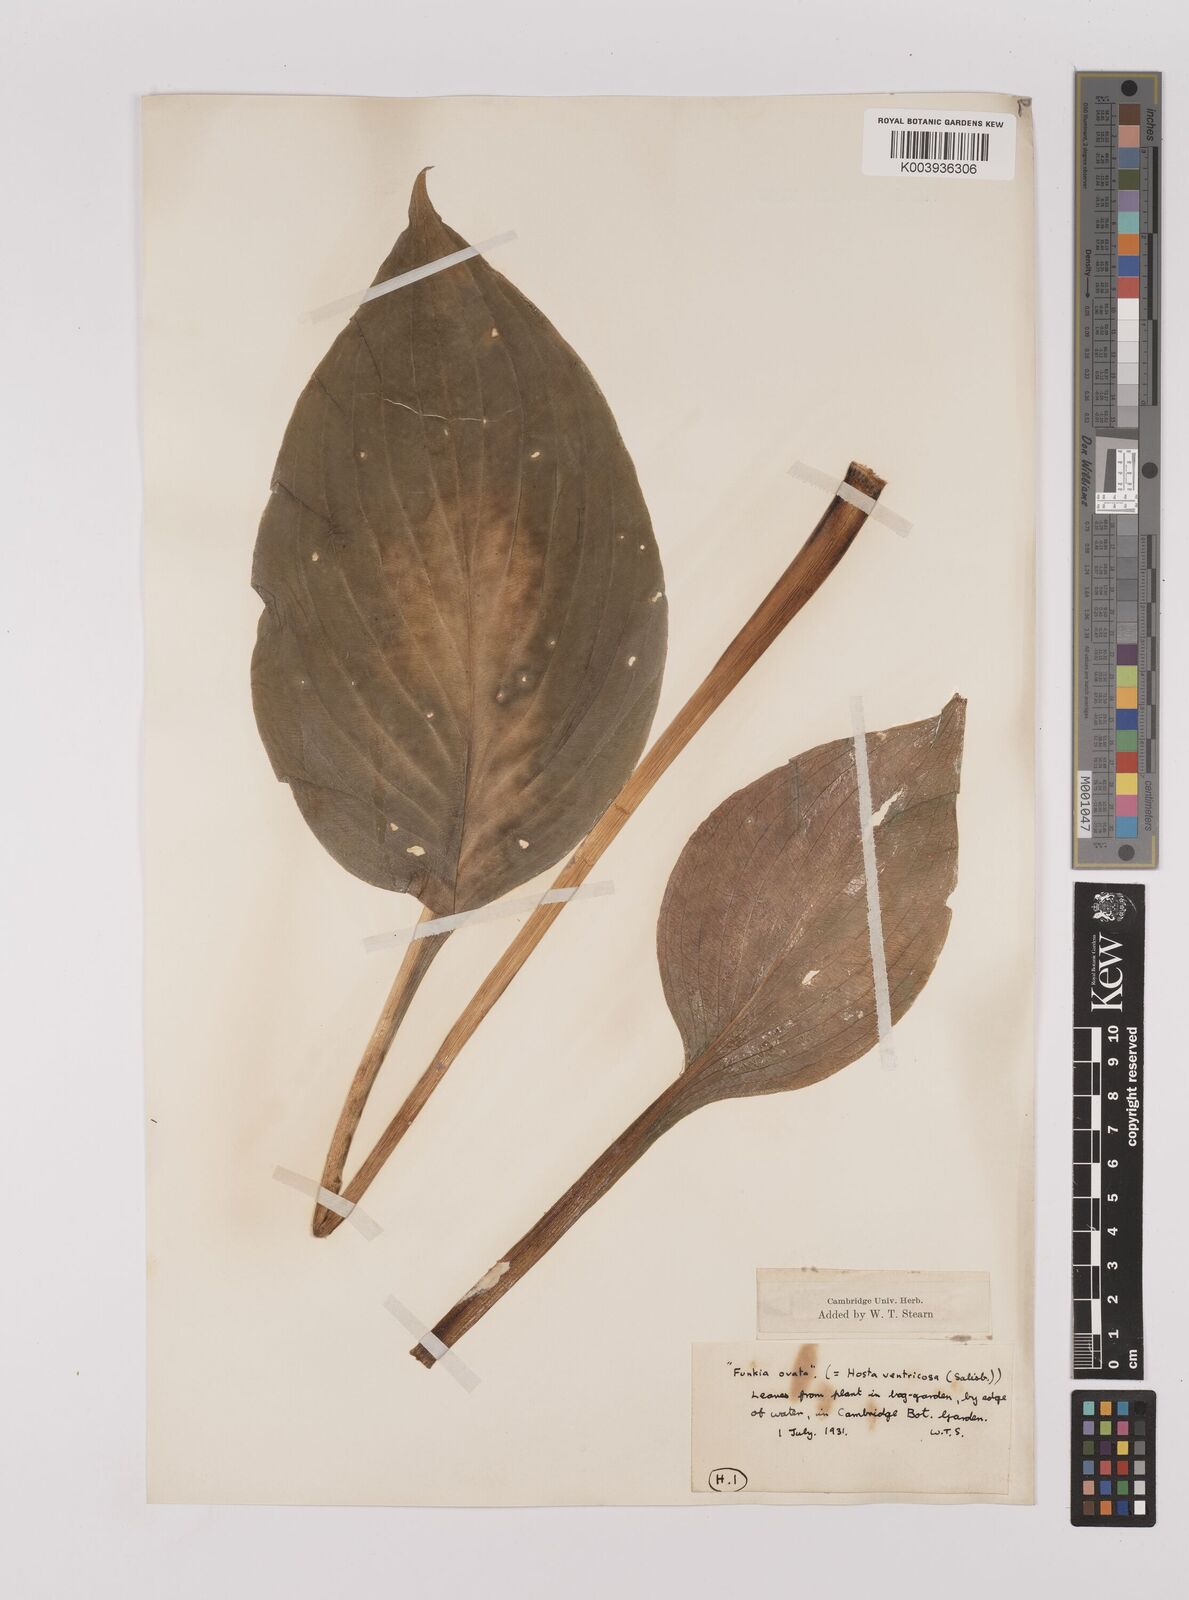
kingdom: Plantae
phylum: Tracheophyta
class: Liliopsida
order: Asparagales
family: Asparagaceae
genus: Hosta
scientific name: Hosta ventricosa
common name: Blue plantain-lily
